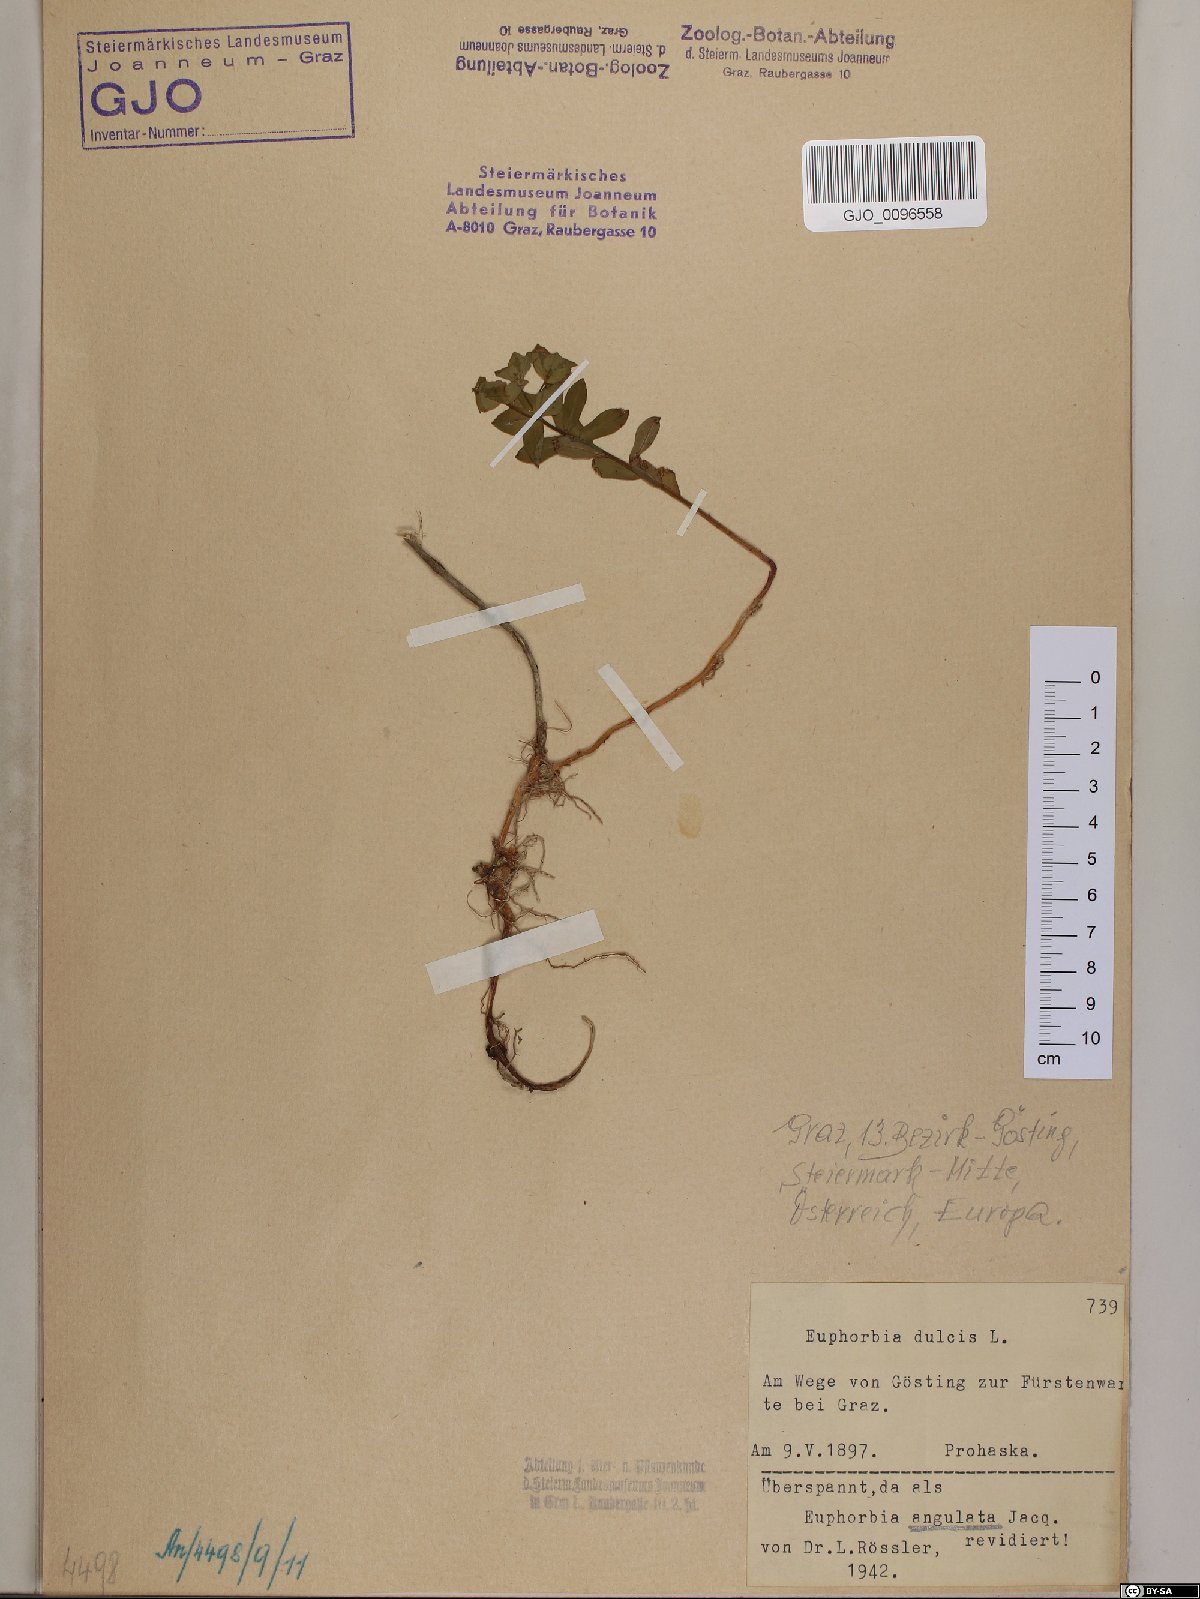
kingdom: Plantae
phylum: Tracheophyta
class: Magnoliopsida
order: Malpighiales
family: Euphorbiaceae
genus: Euphorbia
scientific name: Euphorbia angulata
